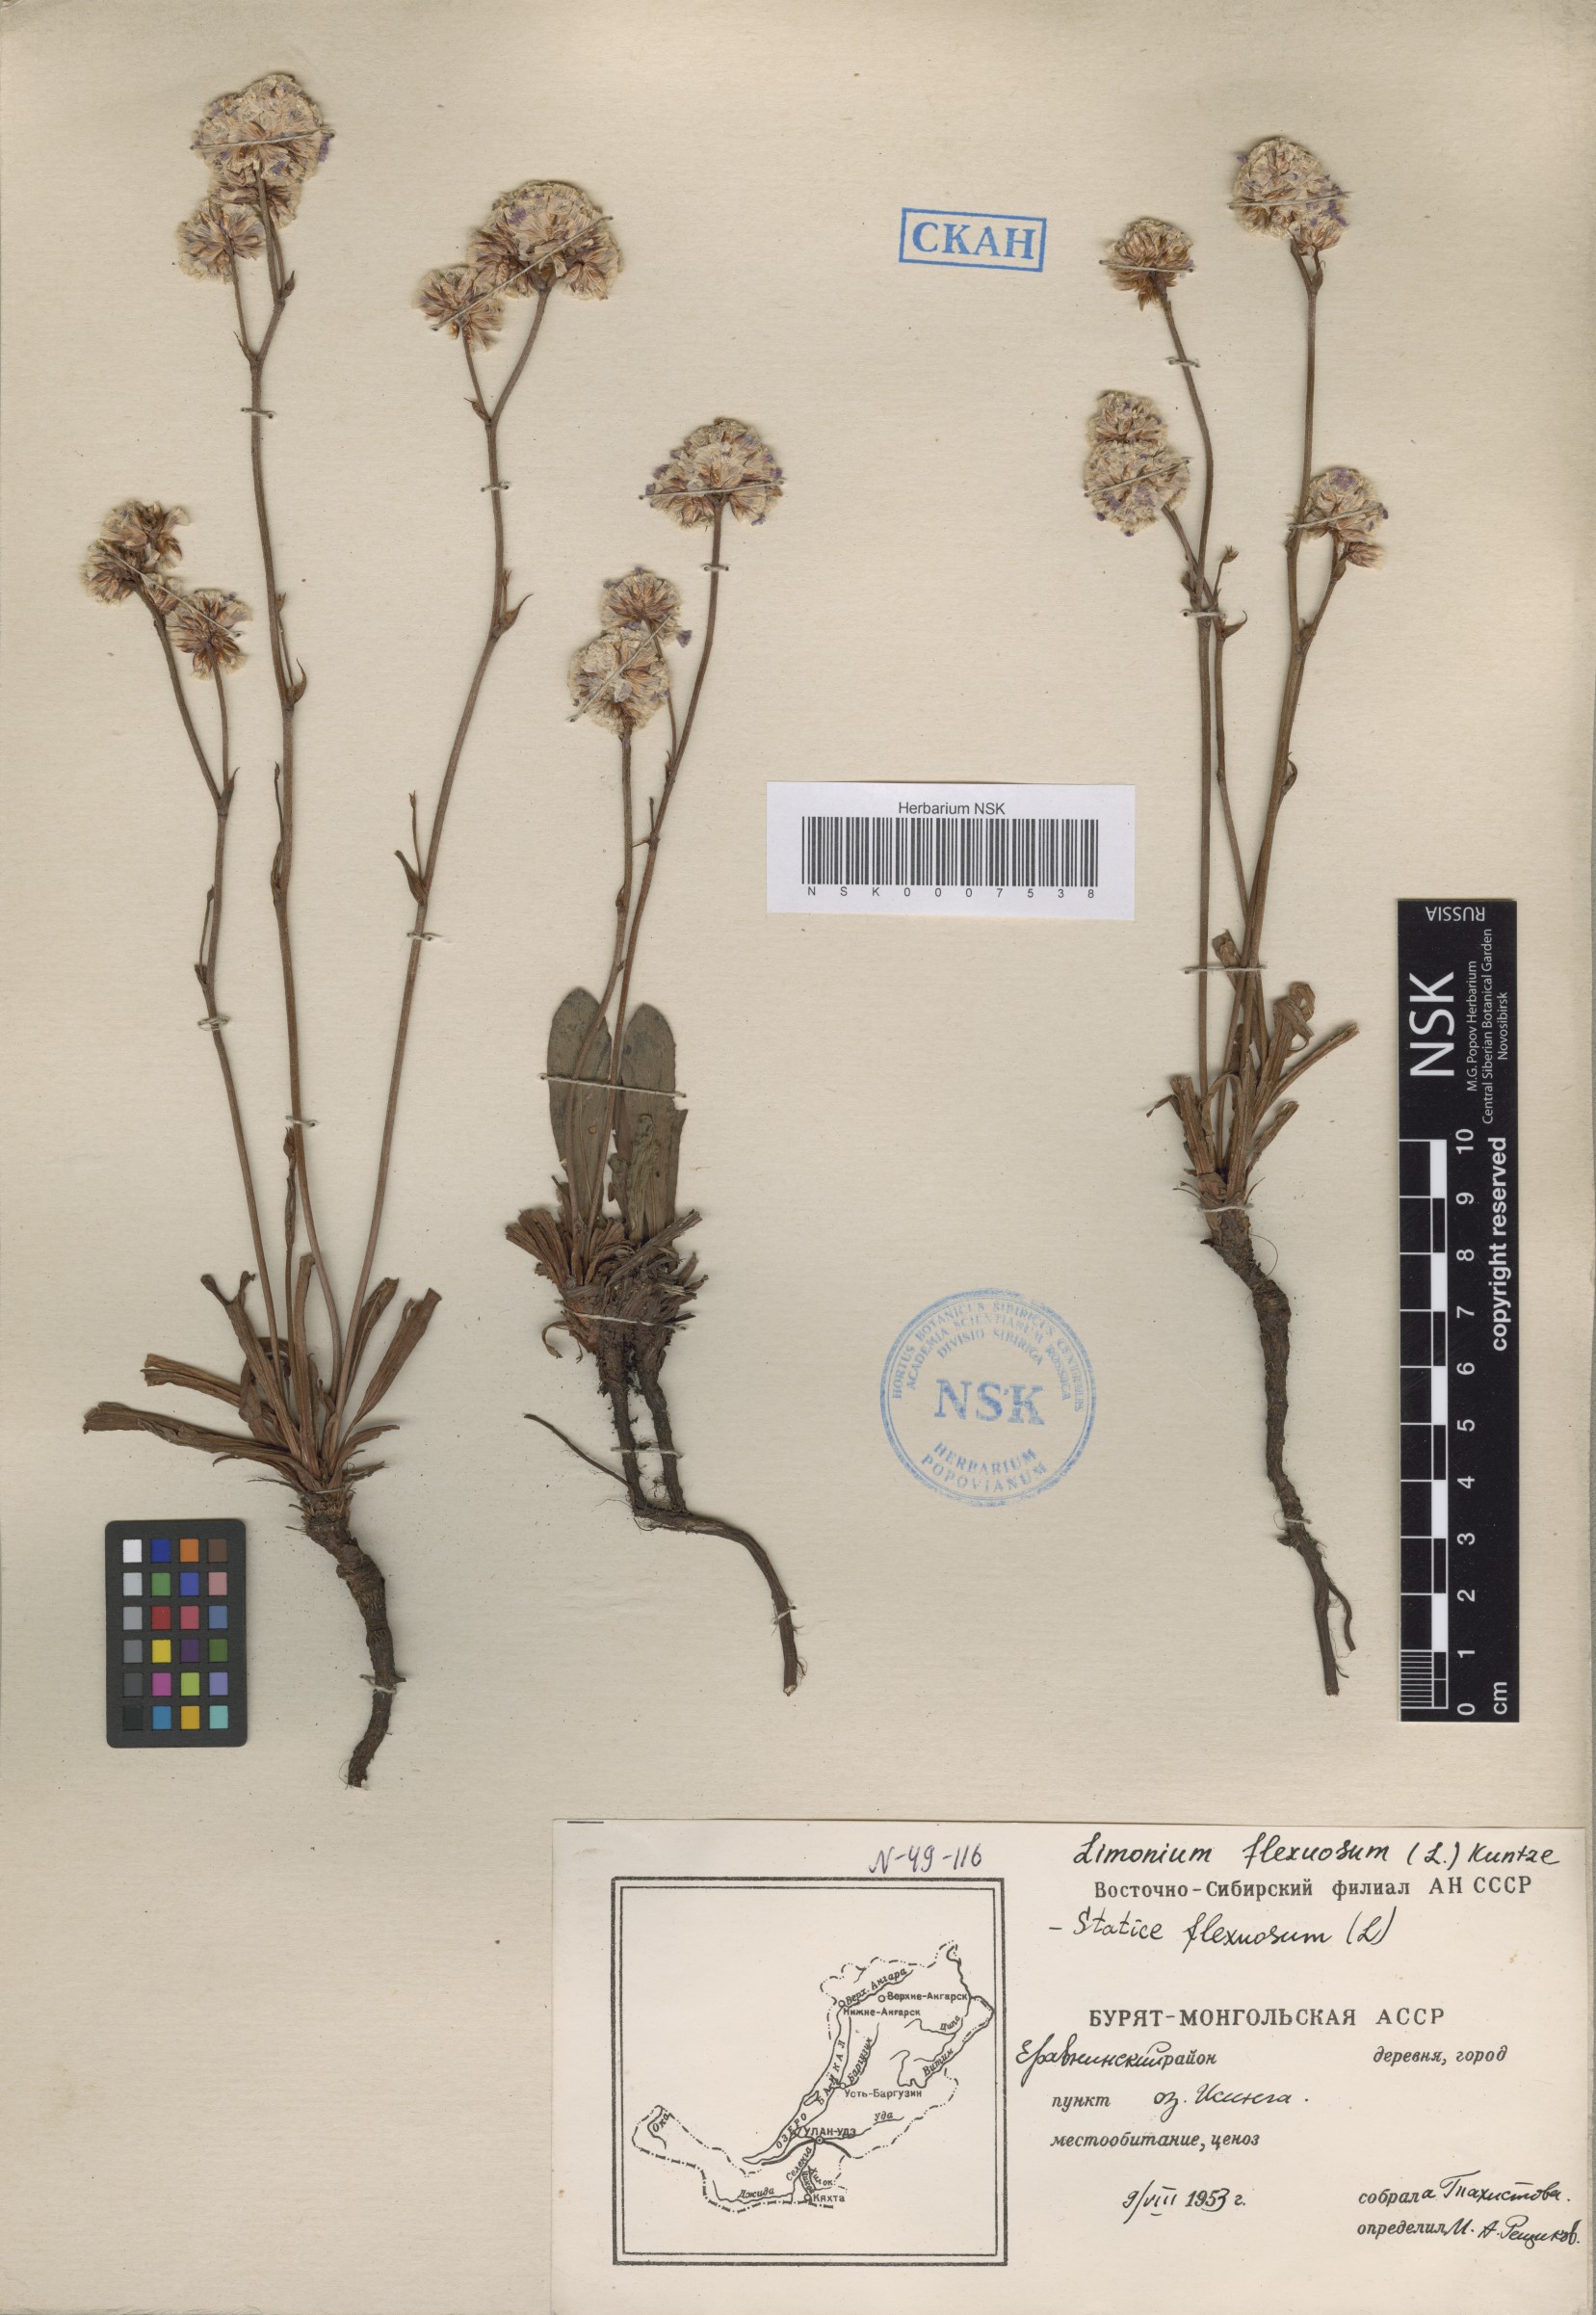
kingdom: Plantae
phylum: Tracheophyta
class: Magnoliopsida
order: Caryophyllales
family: Plumbaginaceae
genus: Limonium
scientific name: Limonium flexuosum
